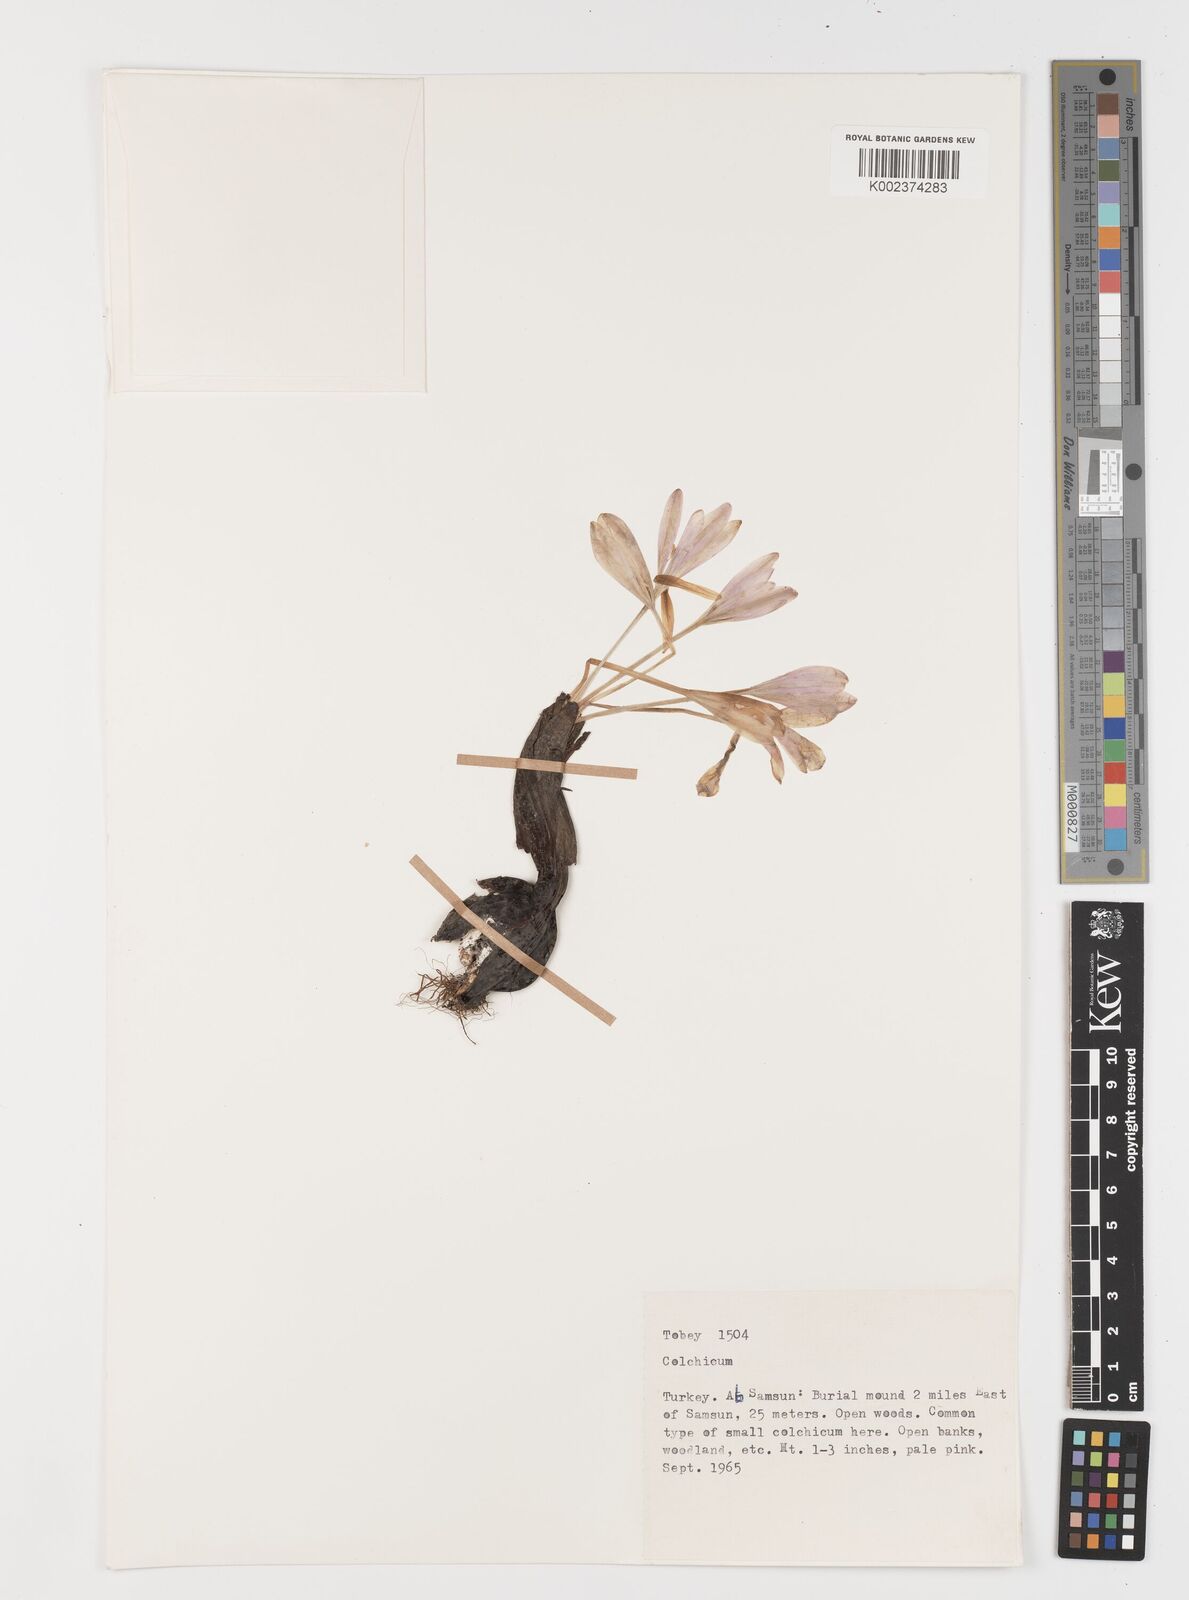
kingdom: Plantae
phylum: Tracheophyta
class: Liliopsida
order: Liliales
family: Colchicaceae
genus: Colchicum
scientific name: Colchicum
